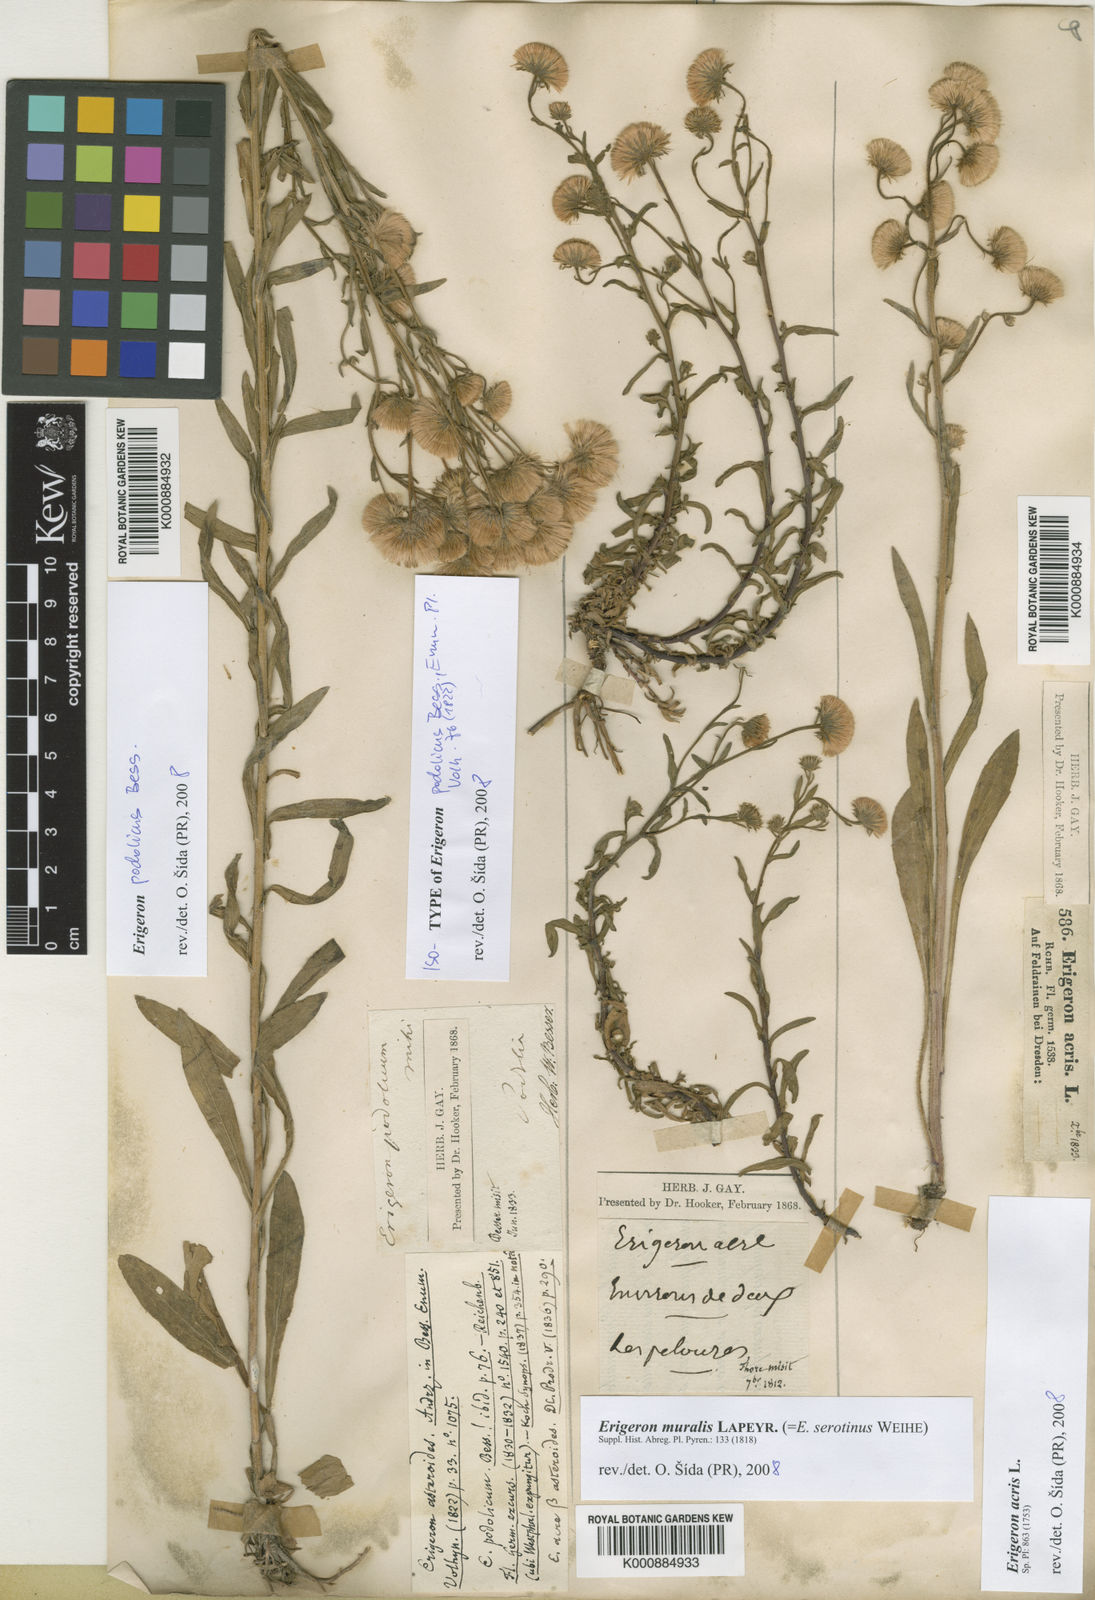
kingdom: Plantae
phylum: Tracheophyta
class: Magnoliopsida
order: Asterales
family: Asteraceae
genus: Erigeron
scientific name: Erigeron podolicus
